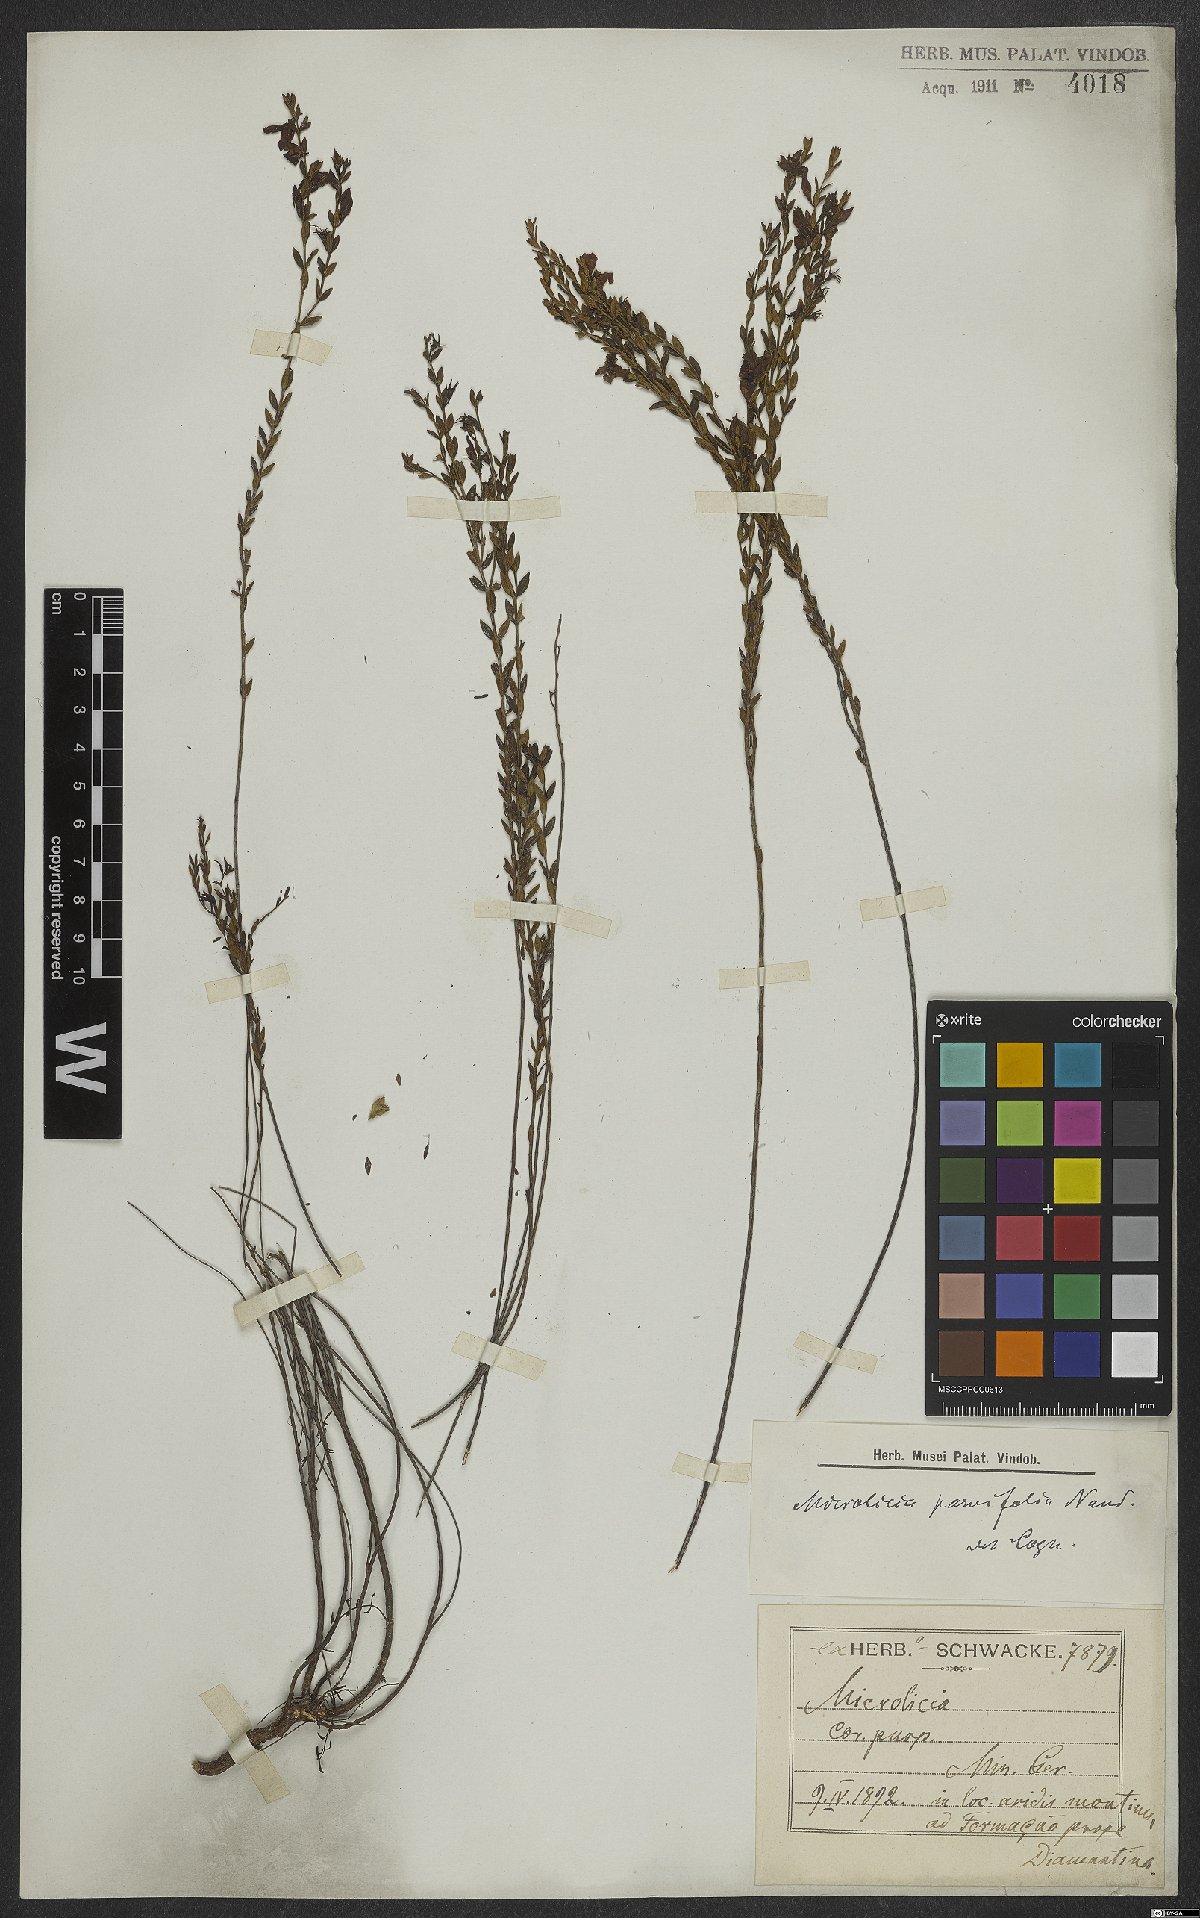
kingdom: Plantae
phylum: Tracheophyta
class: Magnoliopsida
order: Myrtales
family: Melastomataceae
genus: Microlicia
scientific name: Microlicia isophylla
